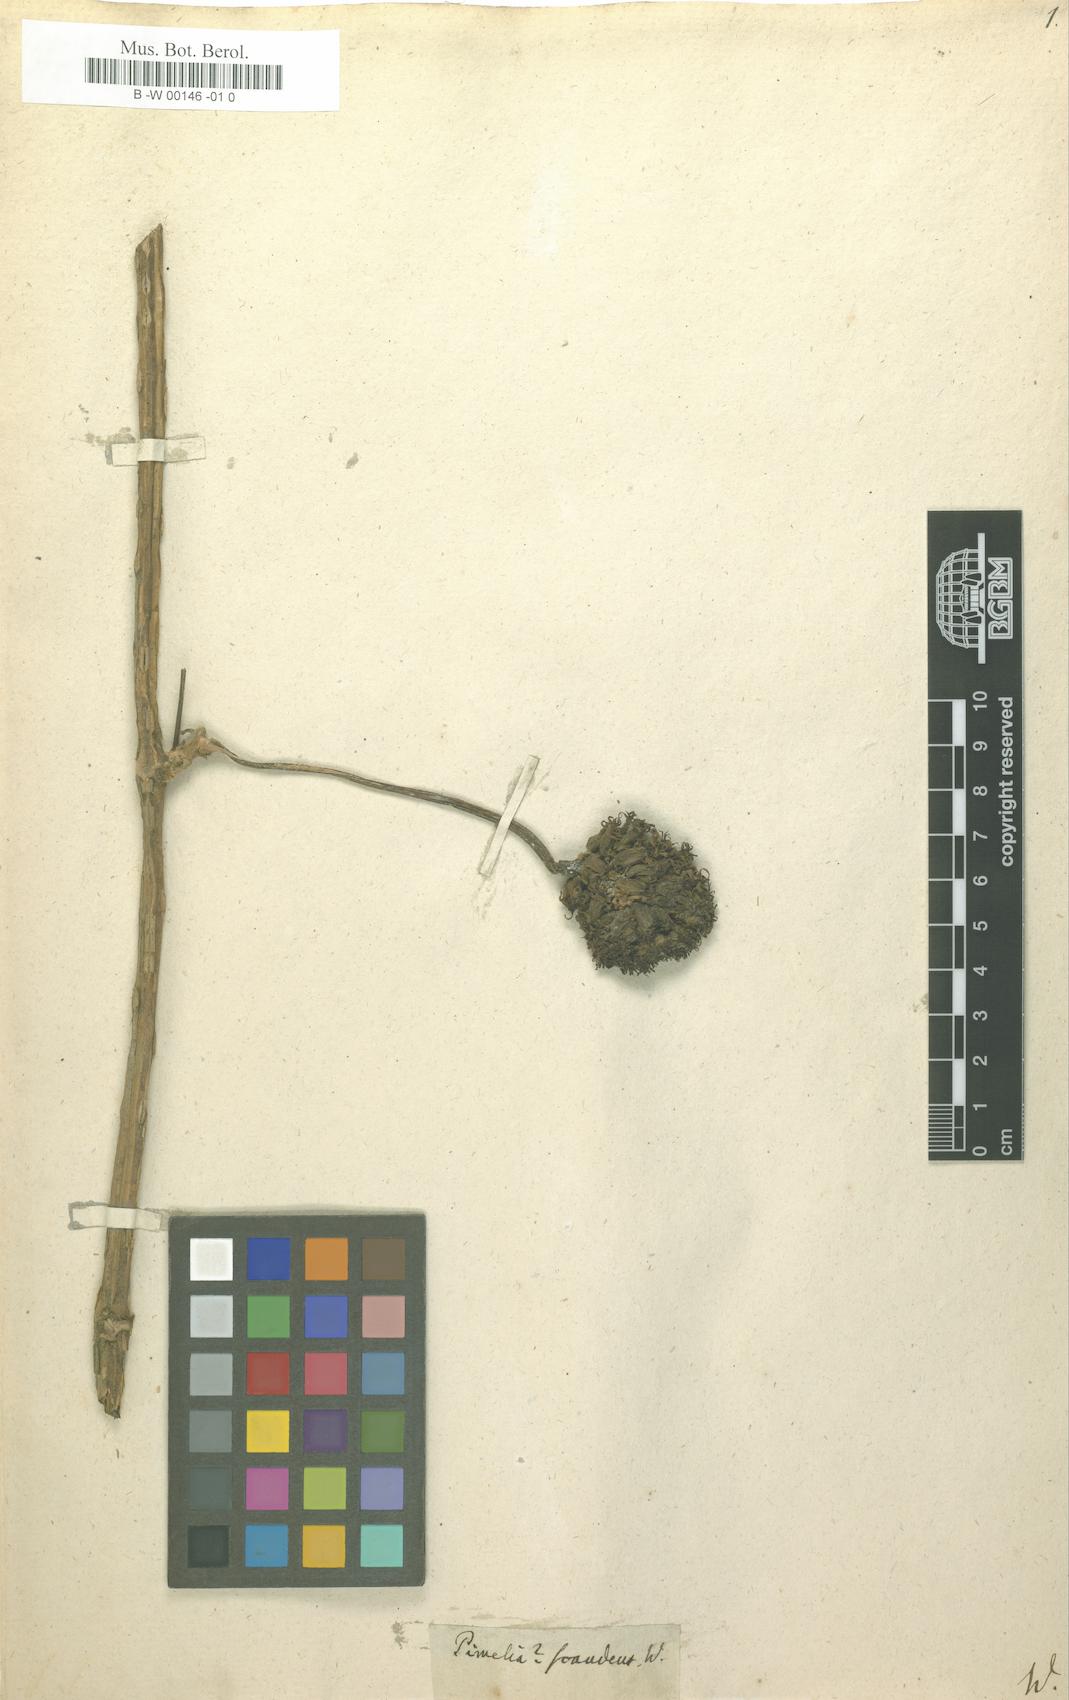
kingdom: Plantae
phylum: Tracheophyta
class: Magnoliopsida
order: Malvales
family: Thymelaeaceae
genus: Pimelea
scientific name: Pimelea
